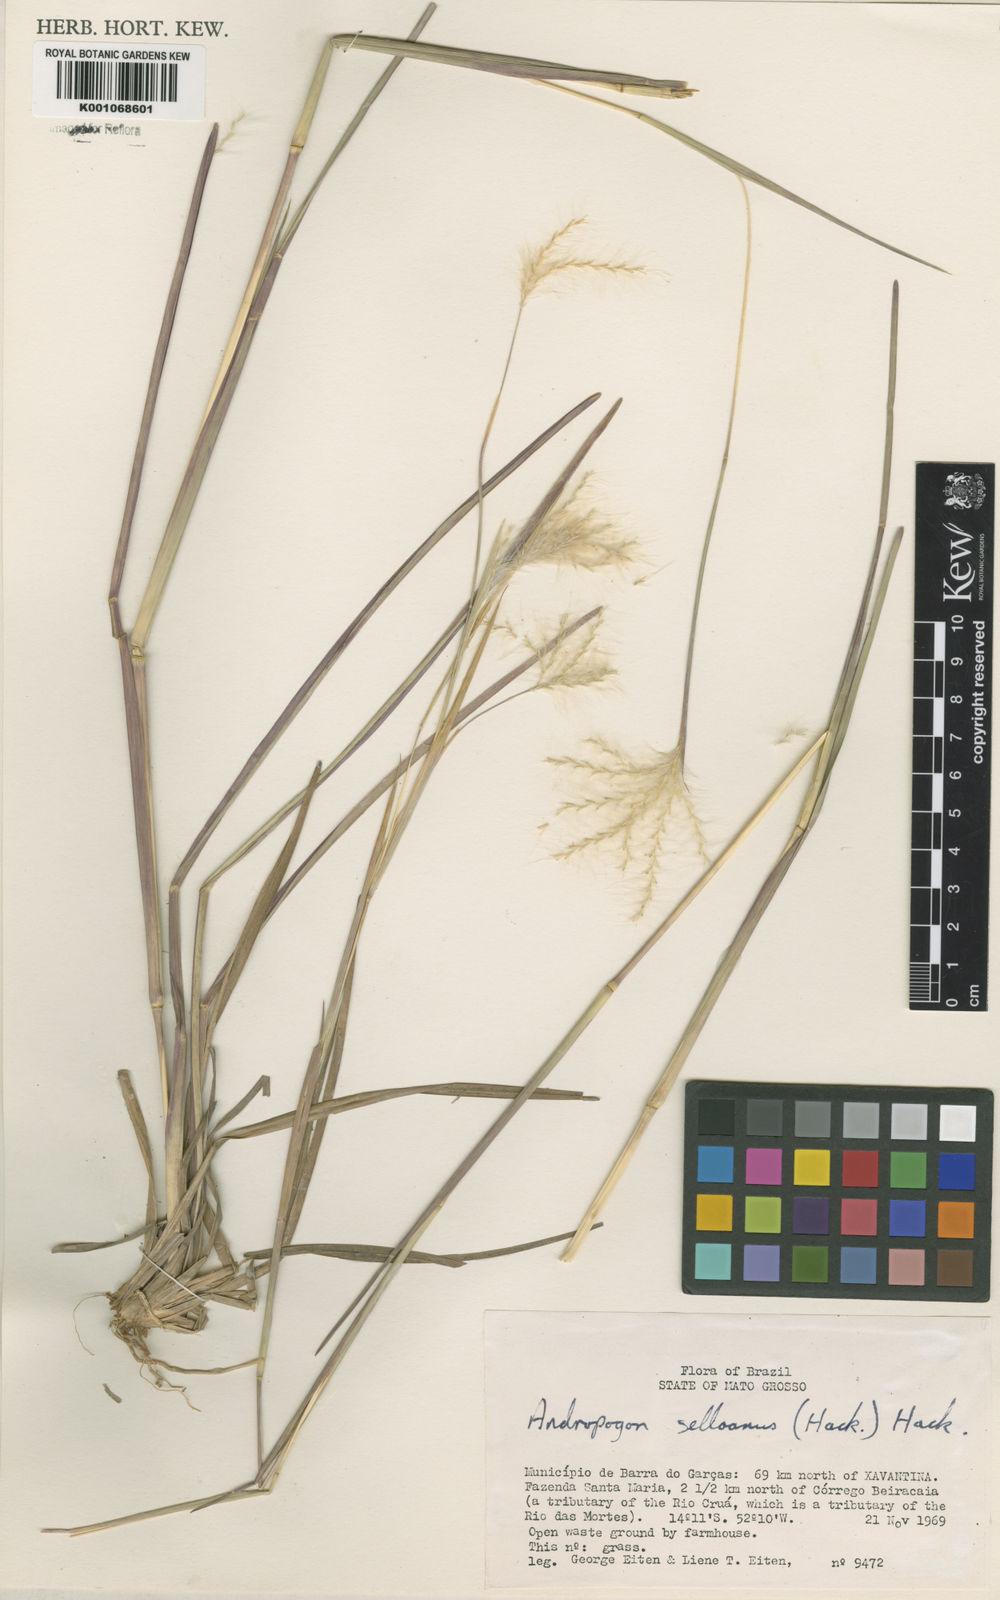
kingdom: Plantae
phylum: Tracheophyta
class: Liliopsida
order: Poales
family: Poaceae
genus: Andropogon
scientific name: Andropogon selloanus
